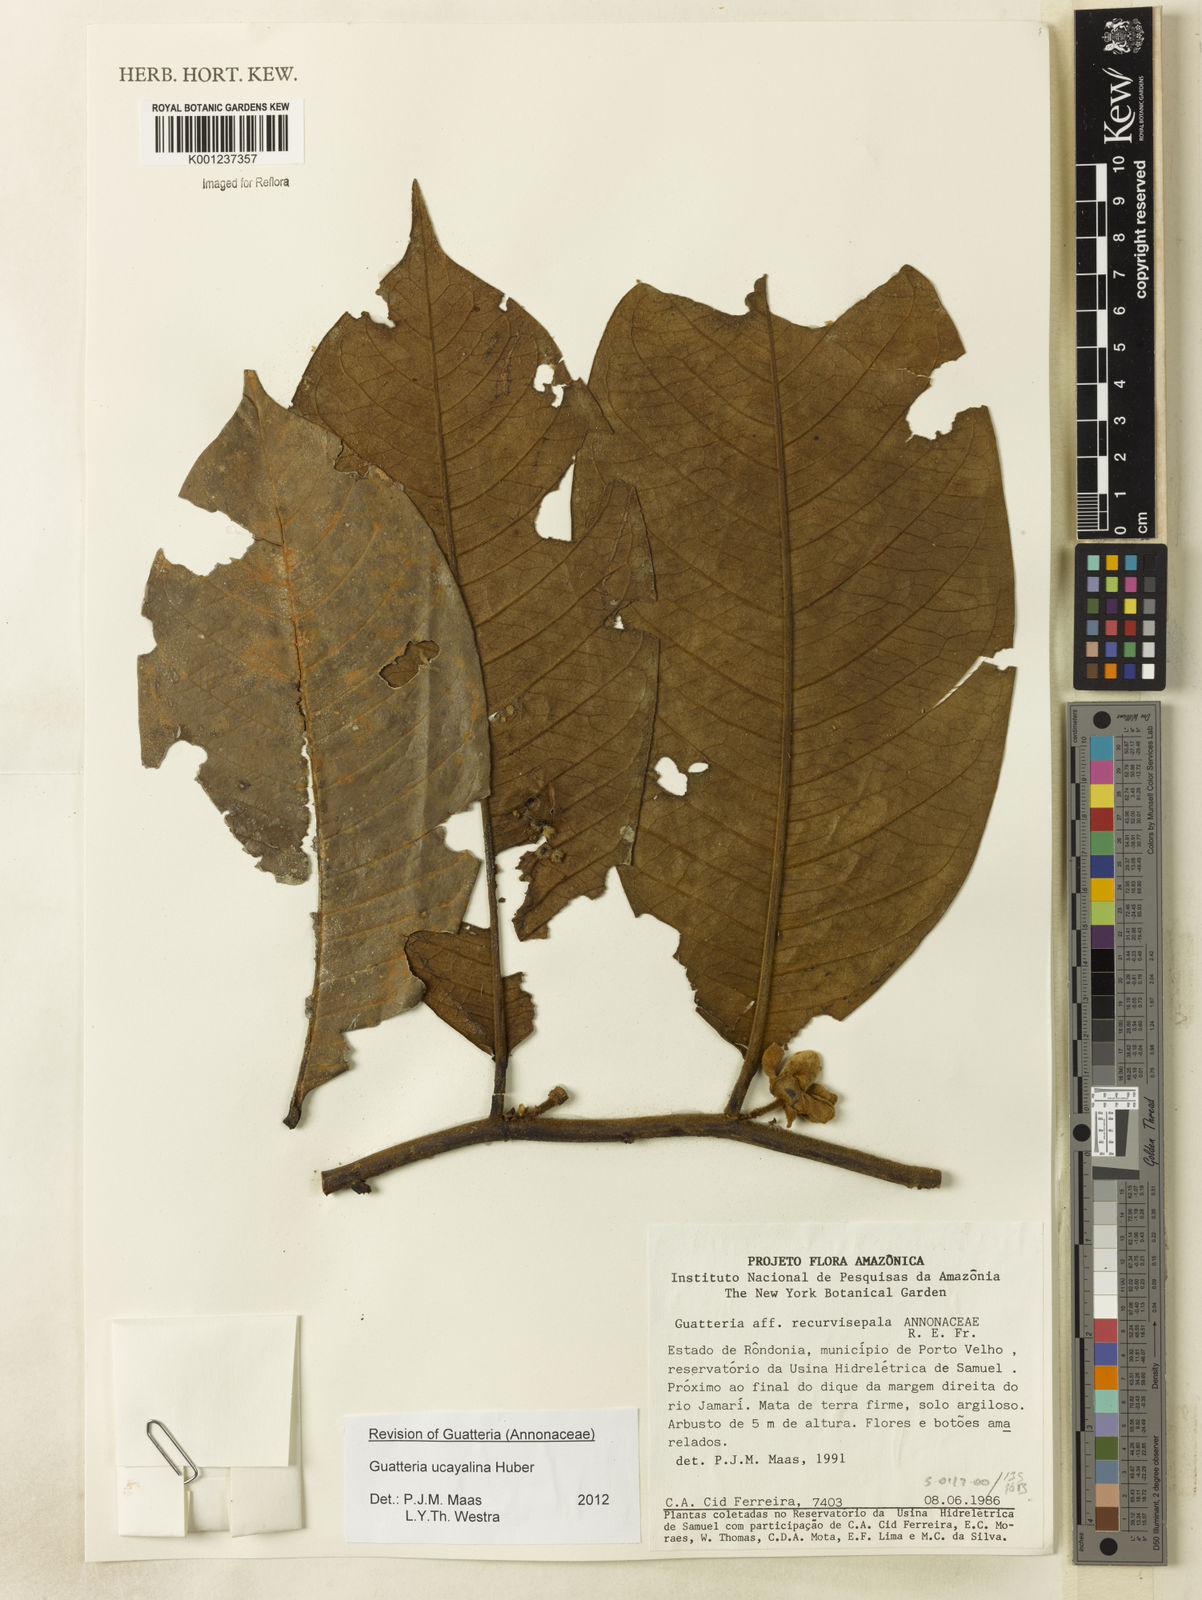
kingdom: Plantae
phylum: Tracheophyta
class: Magnoliopsida
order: Magnoliales
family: Annonaceae
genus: Guatteria
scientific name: Guatteria blepharophylla
